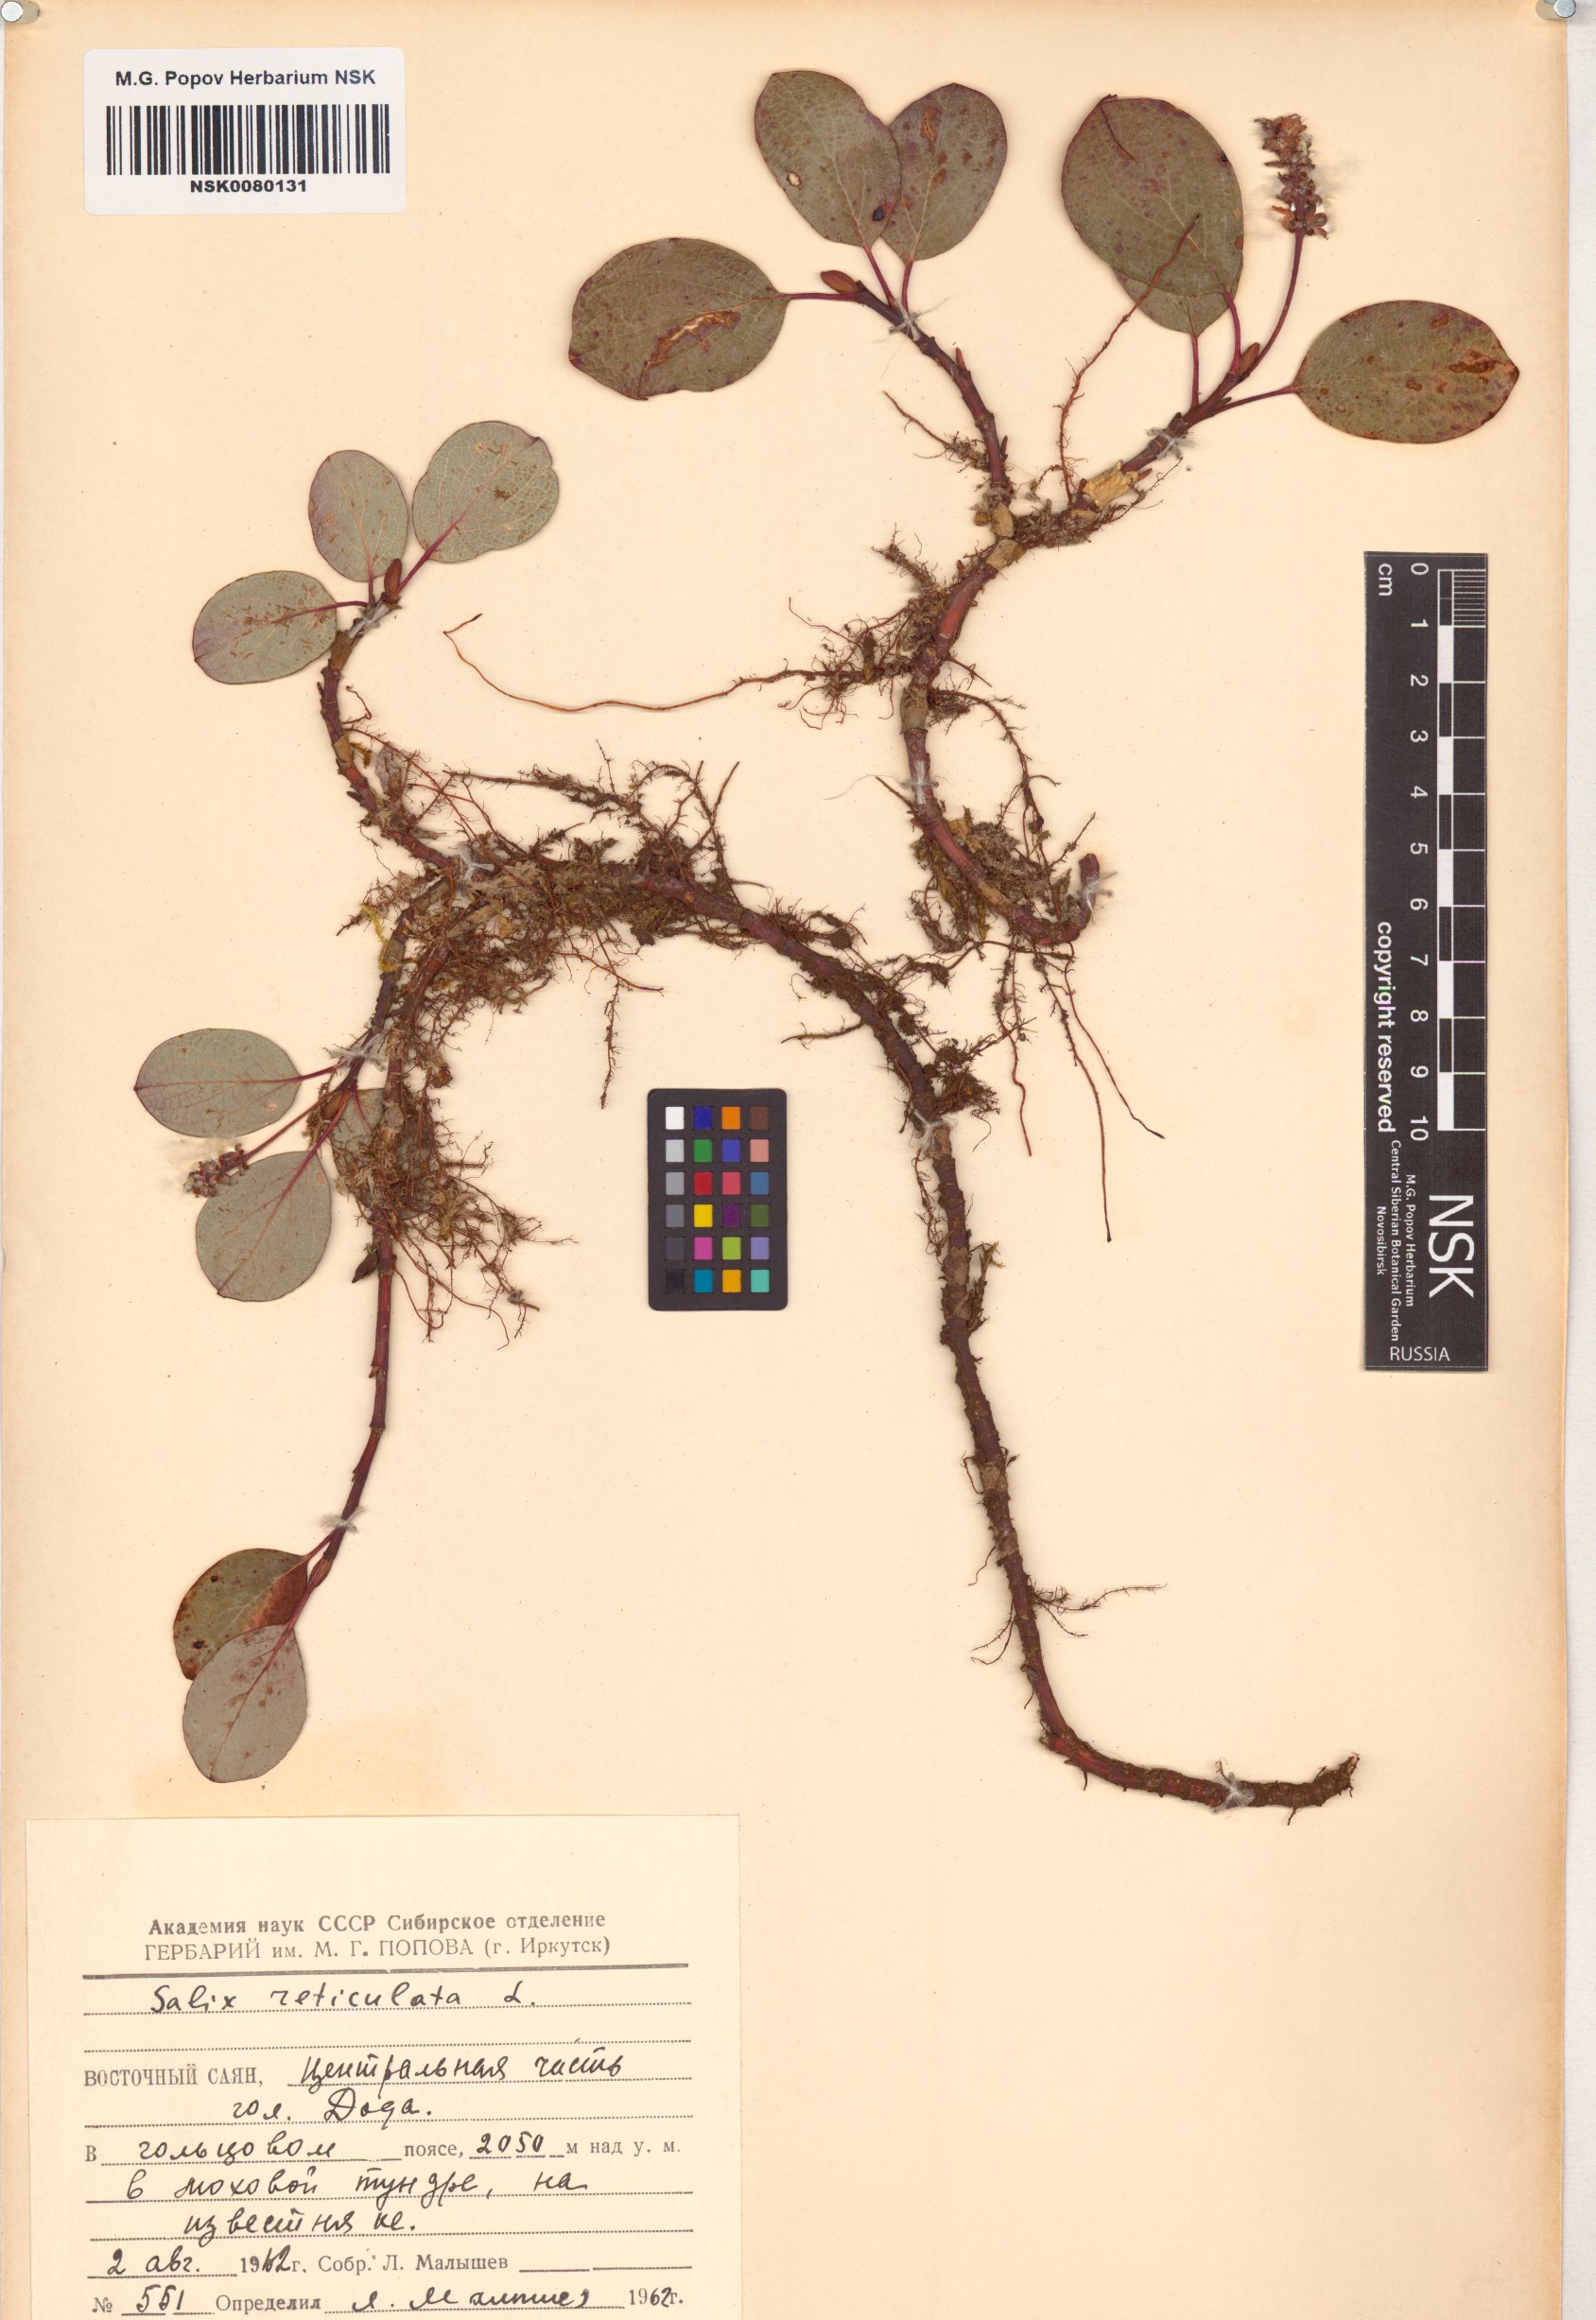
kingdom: Plantae
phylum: Tracheophyta
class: Magnoliopsida
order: Malpighiales
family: Salicaceae
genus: Salix
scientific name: Salix reticulata
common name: Net-leaved willow
